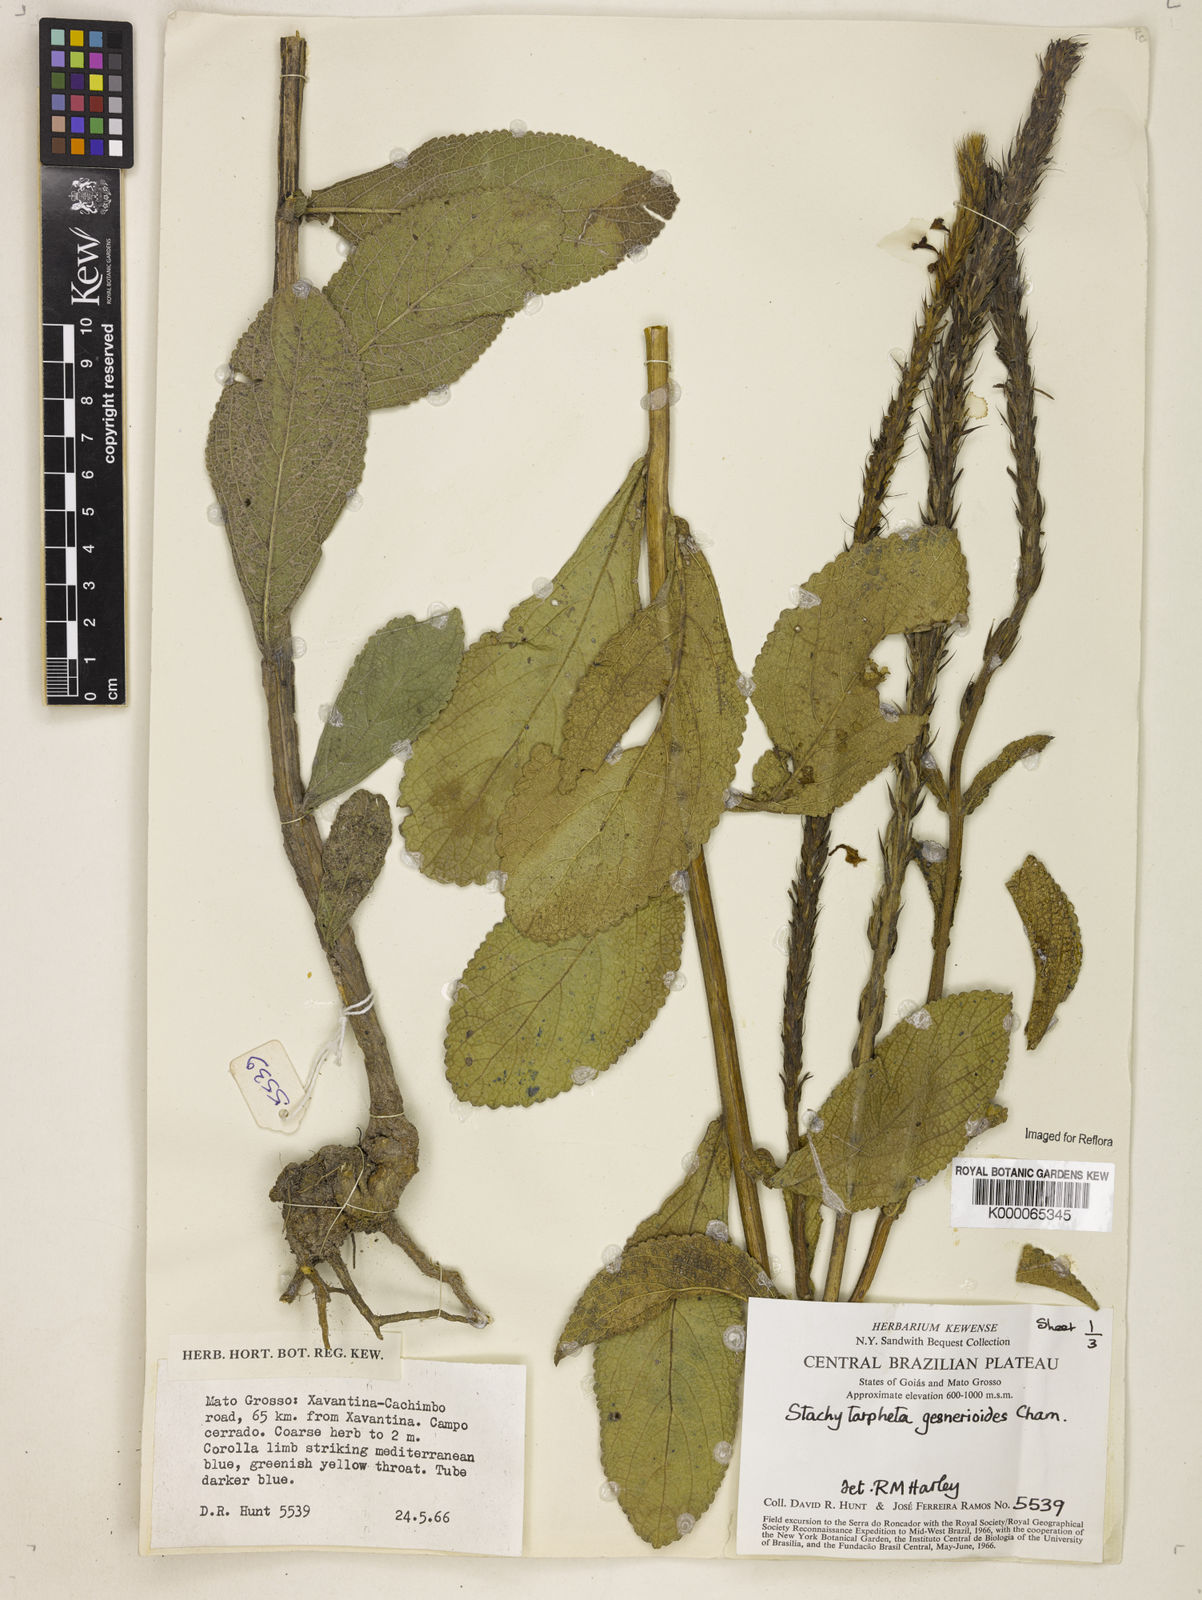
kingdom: Plantae
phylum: Tracheophyta
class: Magnoliopsida
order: Lamiales
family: Verbenaceae
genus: Stachytarpheta
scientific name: Stachytarpheta gesnerioides
